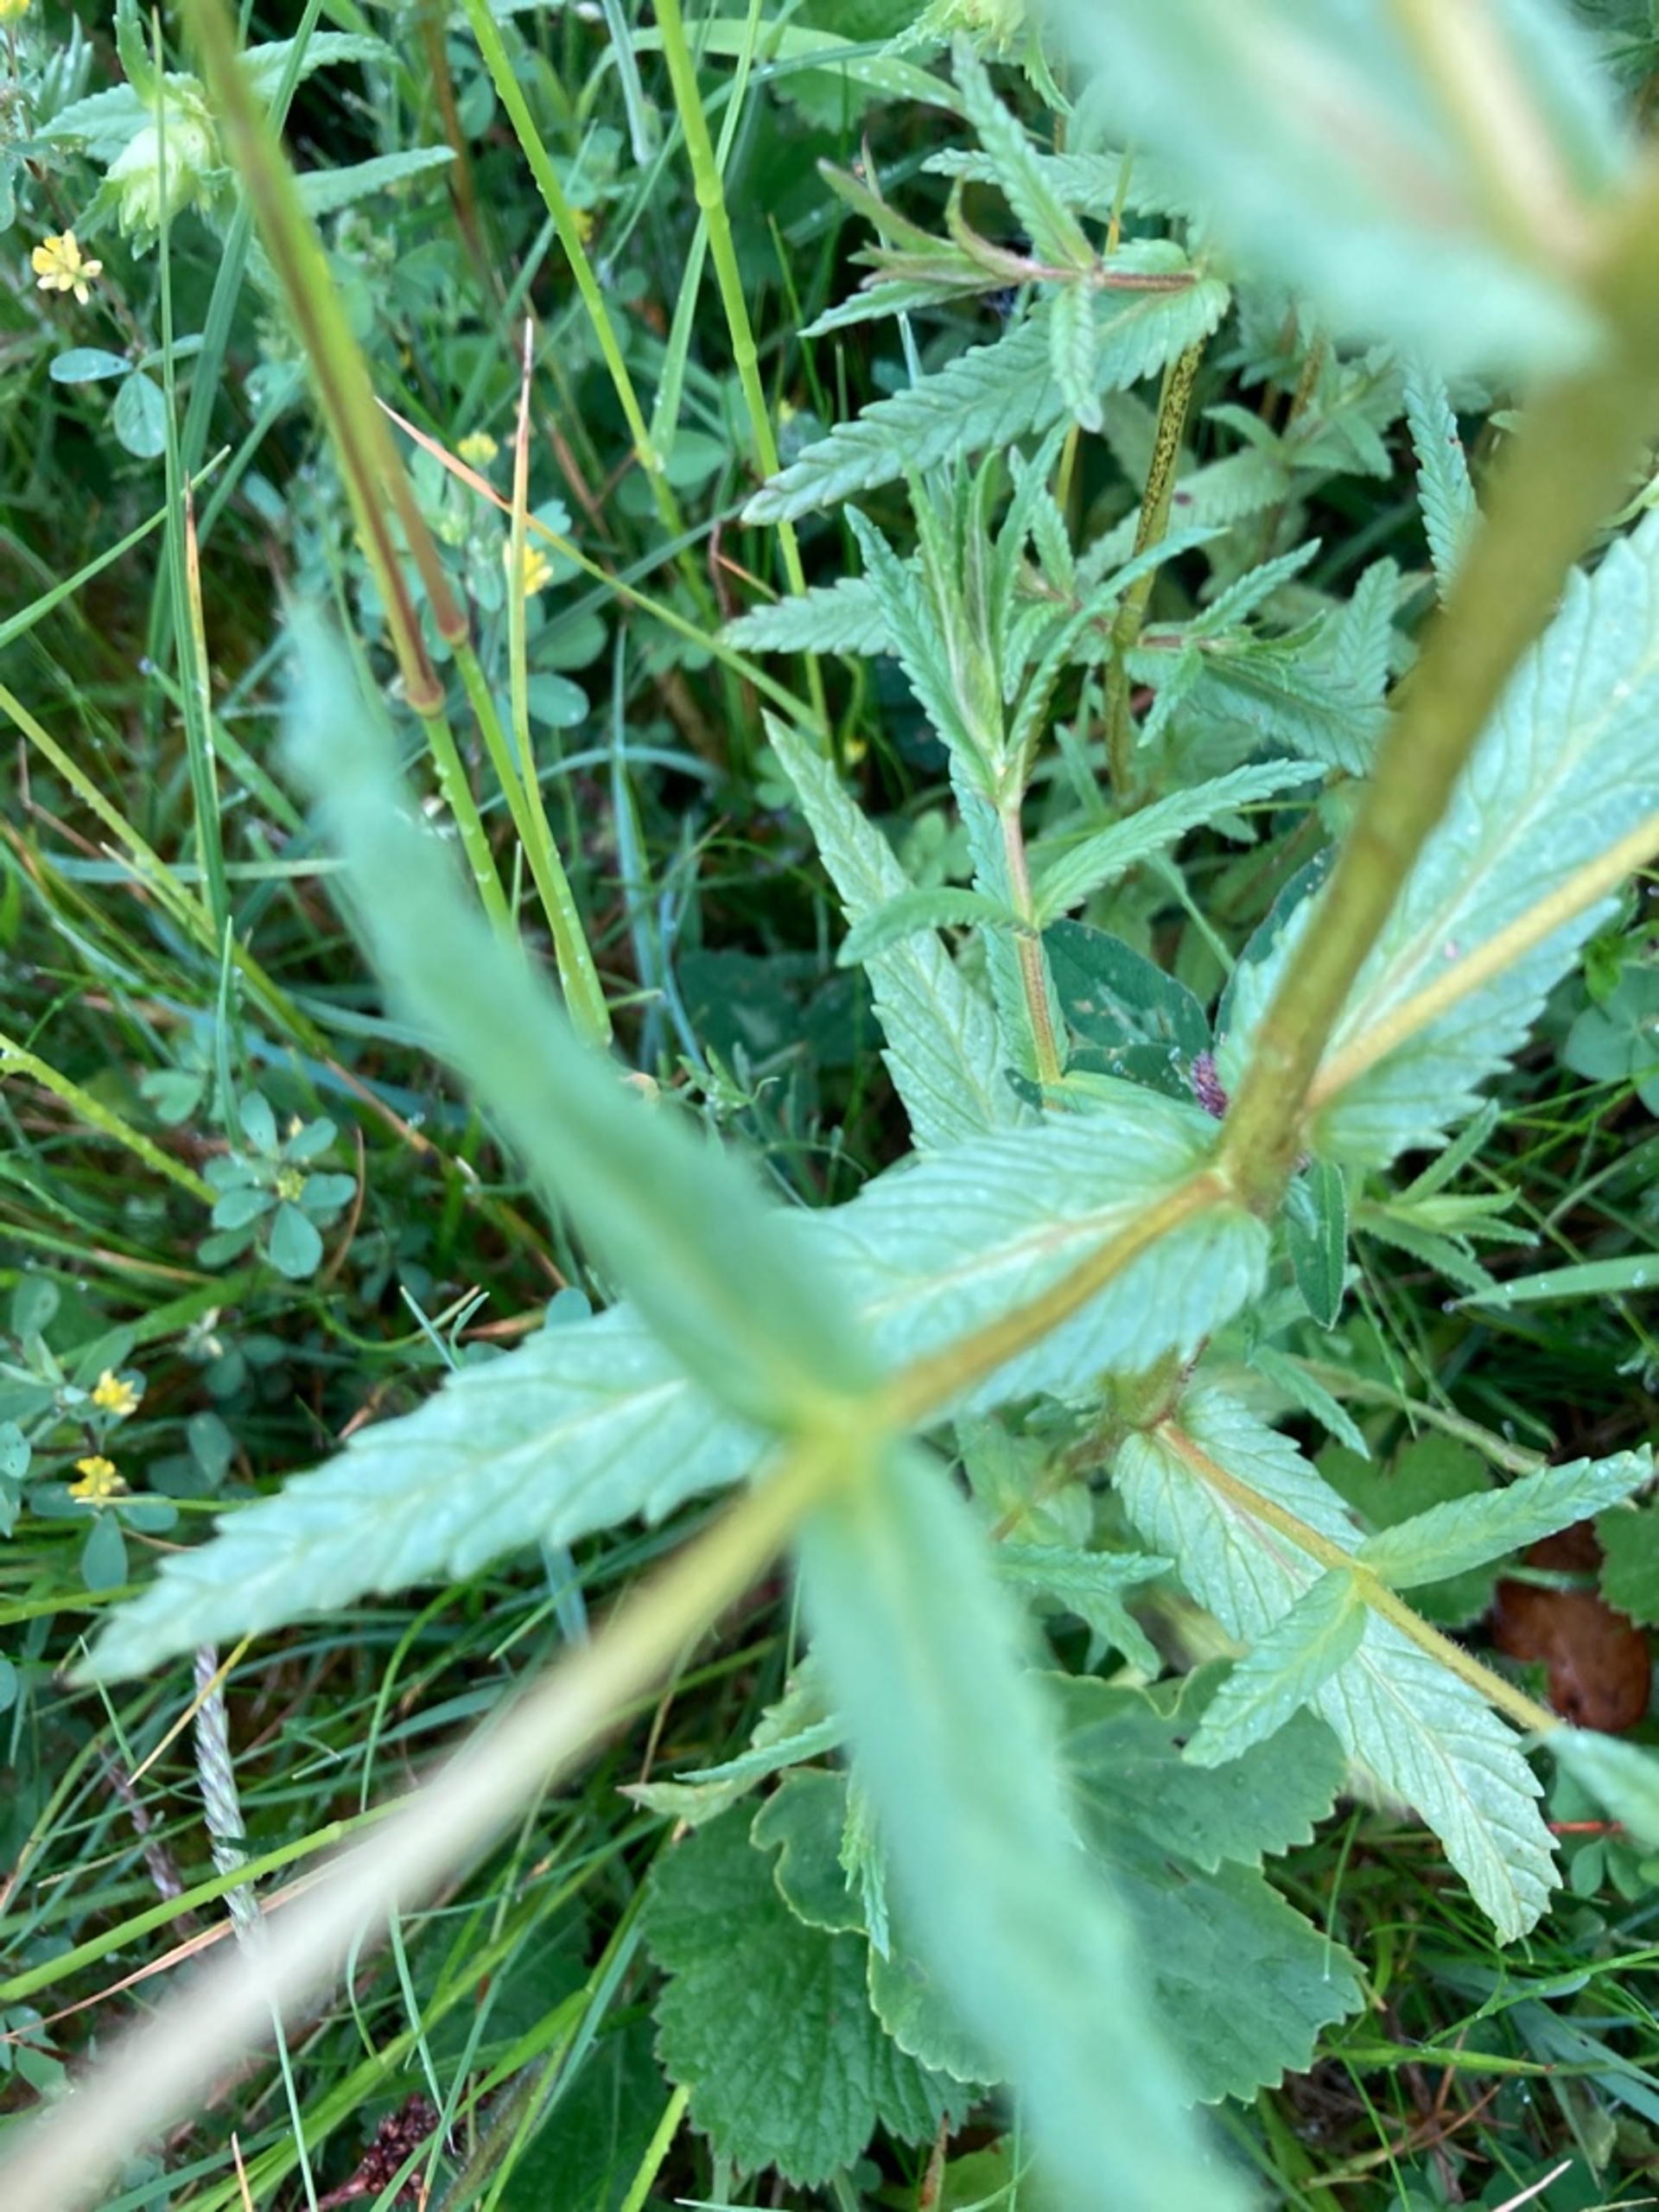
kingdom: Plantae
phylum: Tracheophyta
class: Magnoliopsida
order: Lamiales
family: Orobanchaceae
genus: Rhinanthus
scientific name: Rhinanthus
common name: Stor skjaller
